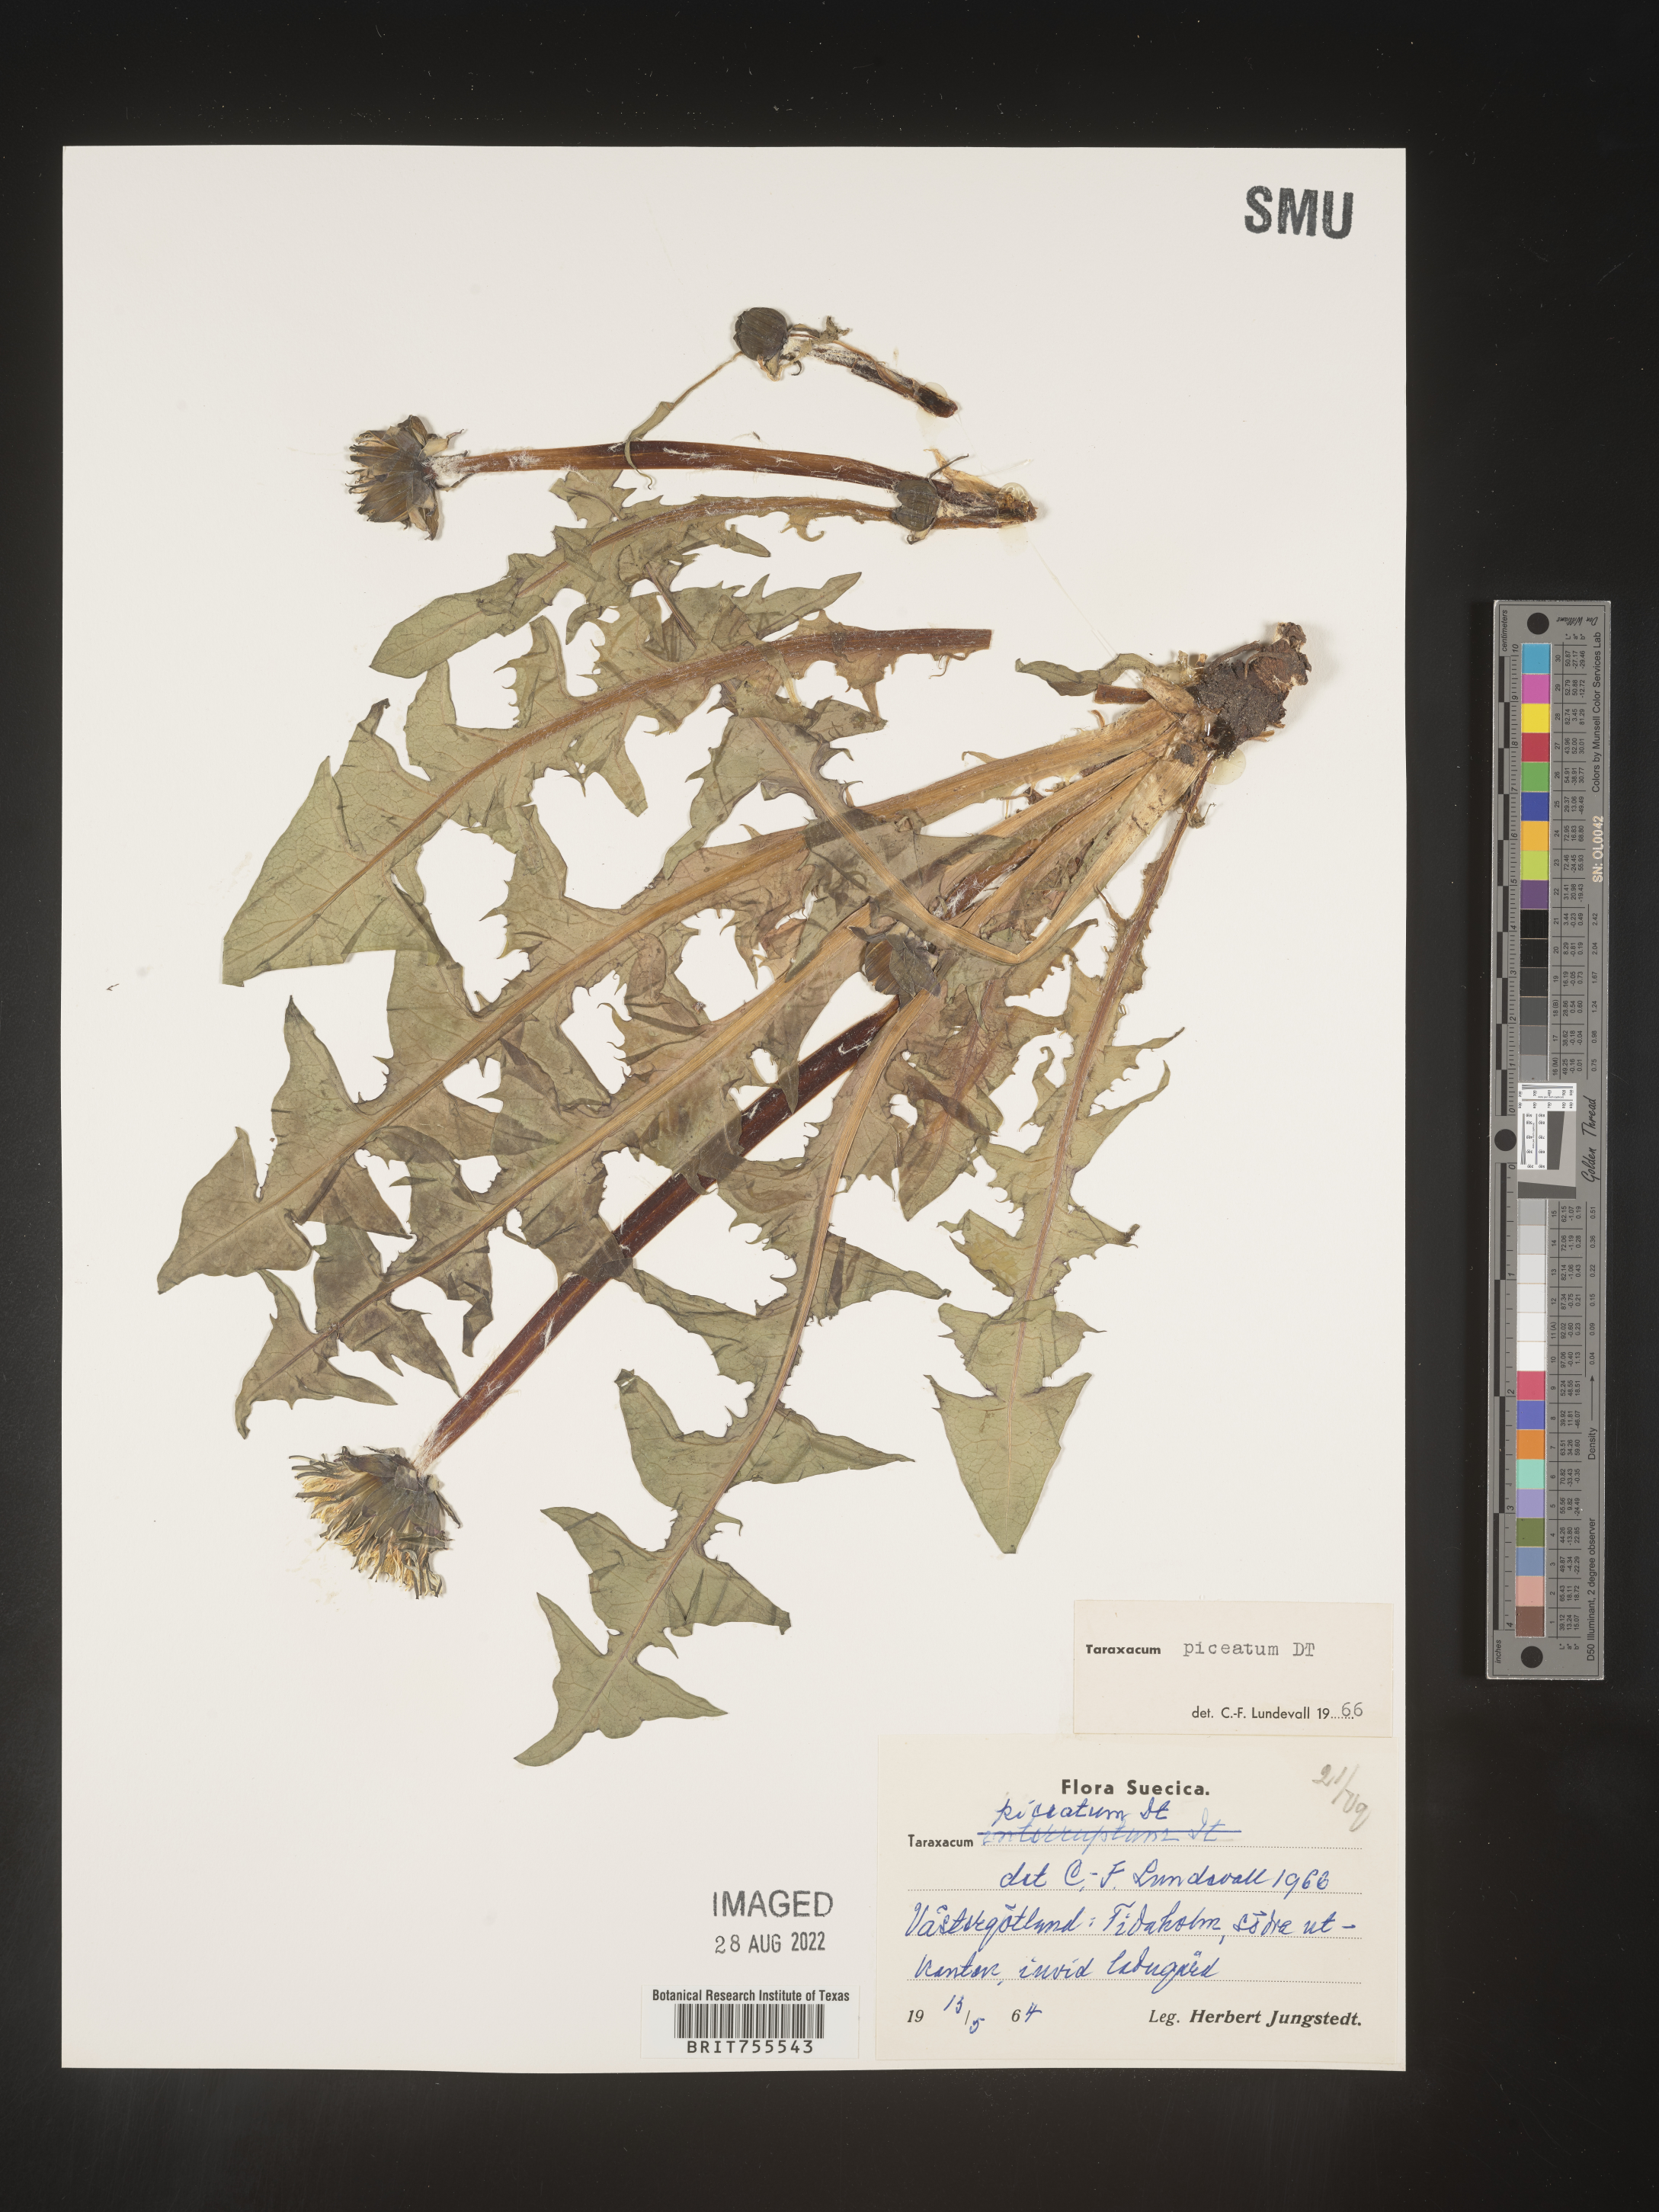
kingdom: Plantae
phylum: Tracheophyta
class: Magnoliopsida
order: Asterales
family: Asteraceae
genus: Taraxacum
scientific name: Taraxacum
